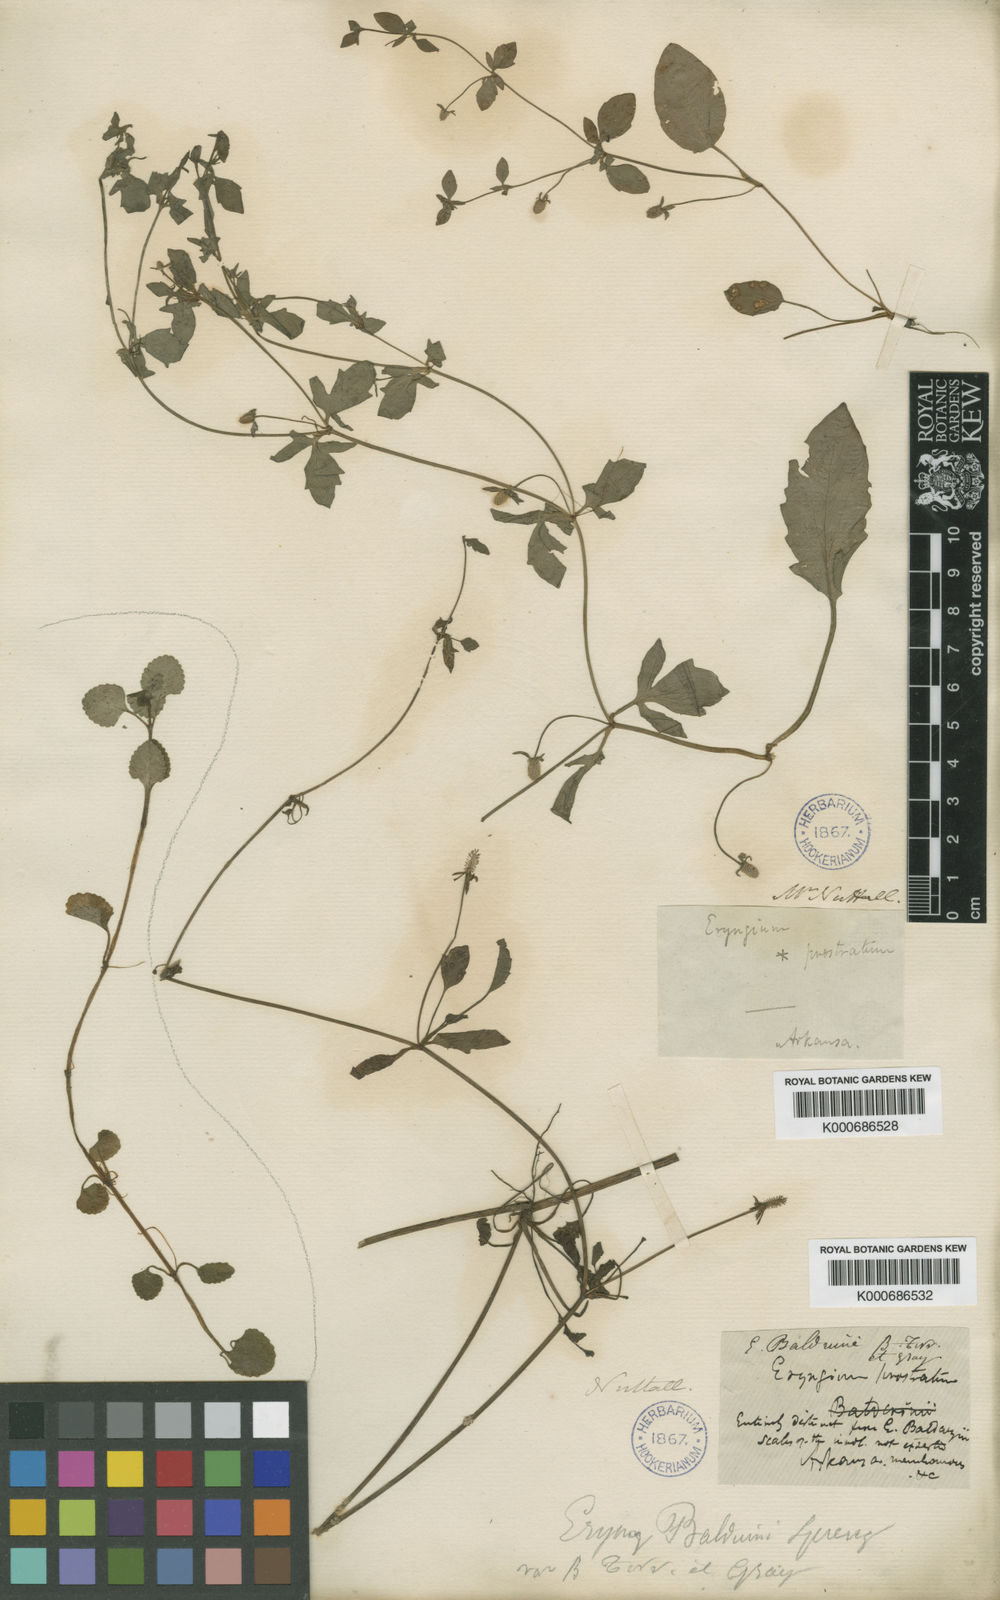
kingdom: Plantae
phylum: Tracheophyta
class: Magnoliopsida
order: Apiales
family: Apiaceae
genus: Eryngium
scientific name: Eryngium prostratum
